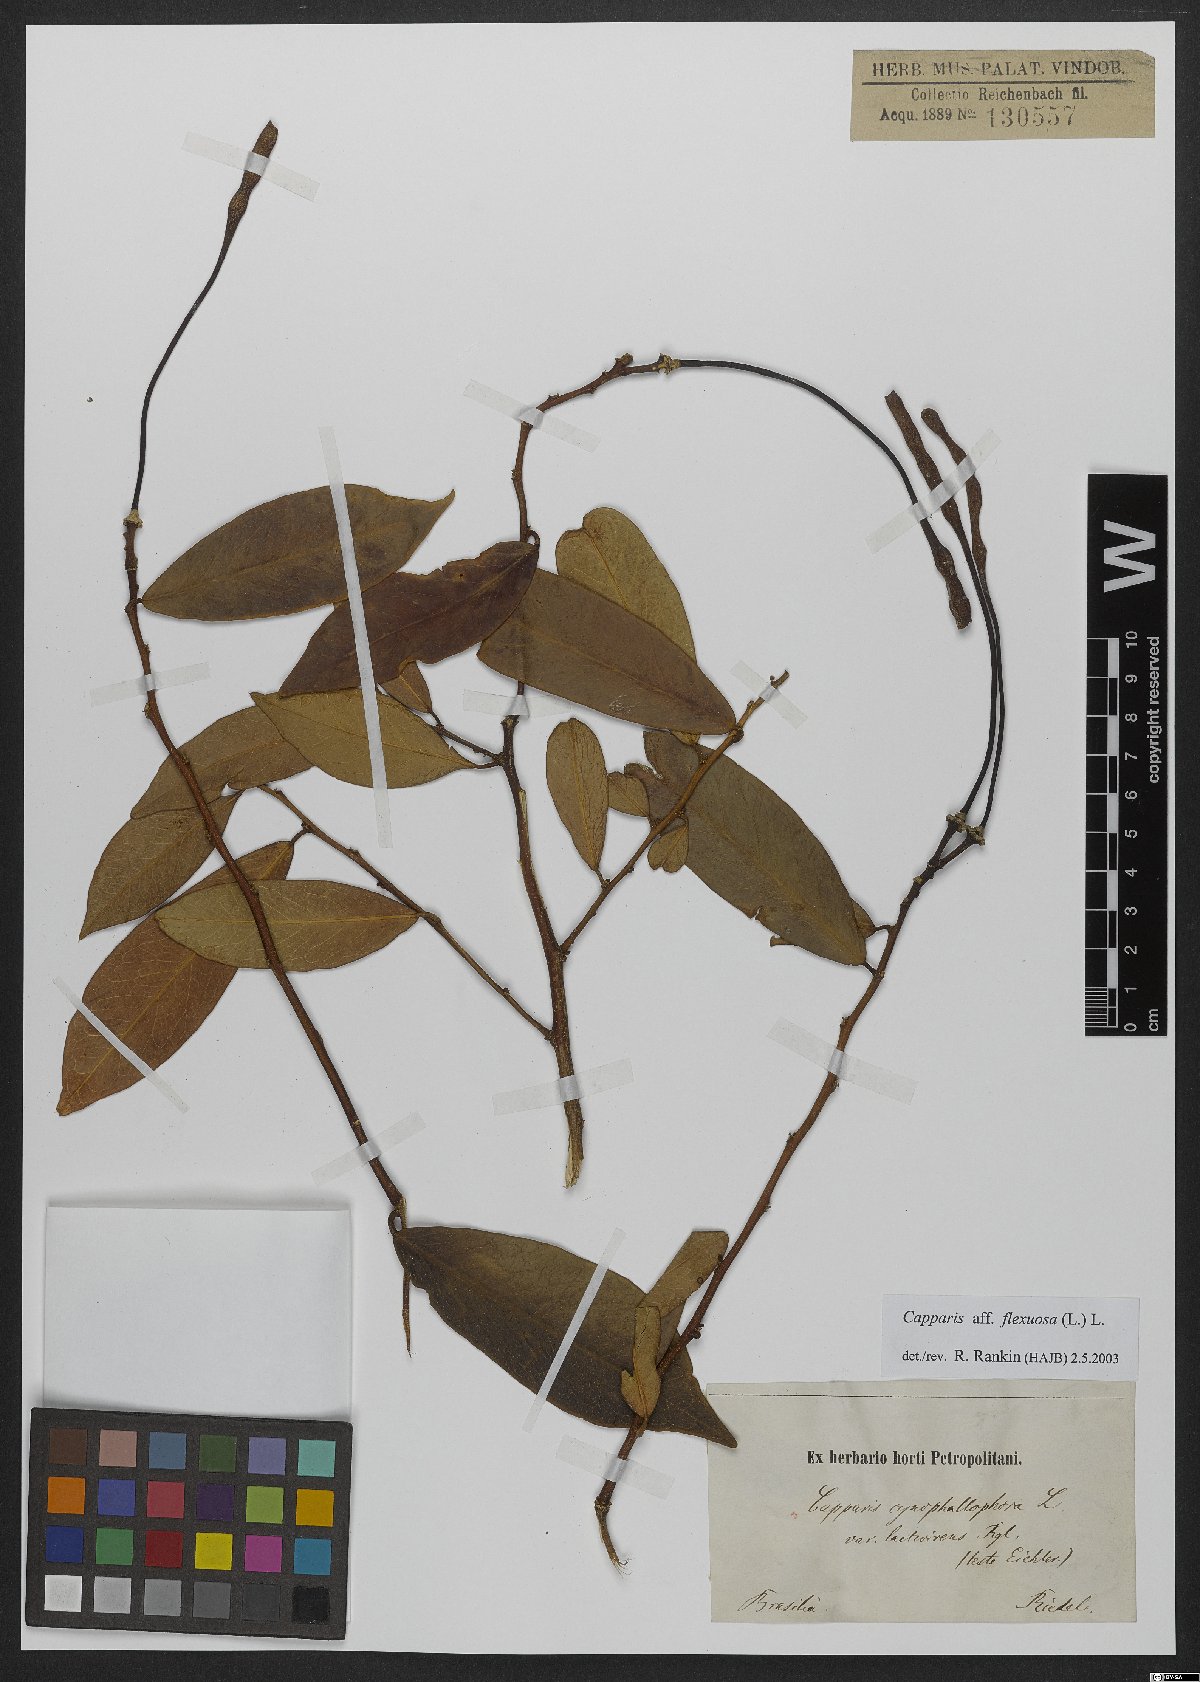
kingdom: Plantae
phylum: Tracheophyta
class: Magnoliopsida
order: Brassicales
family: Capparaceae
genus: Cynophalla
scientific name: Cynophalla flexuosa
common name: Capertree
